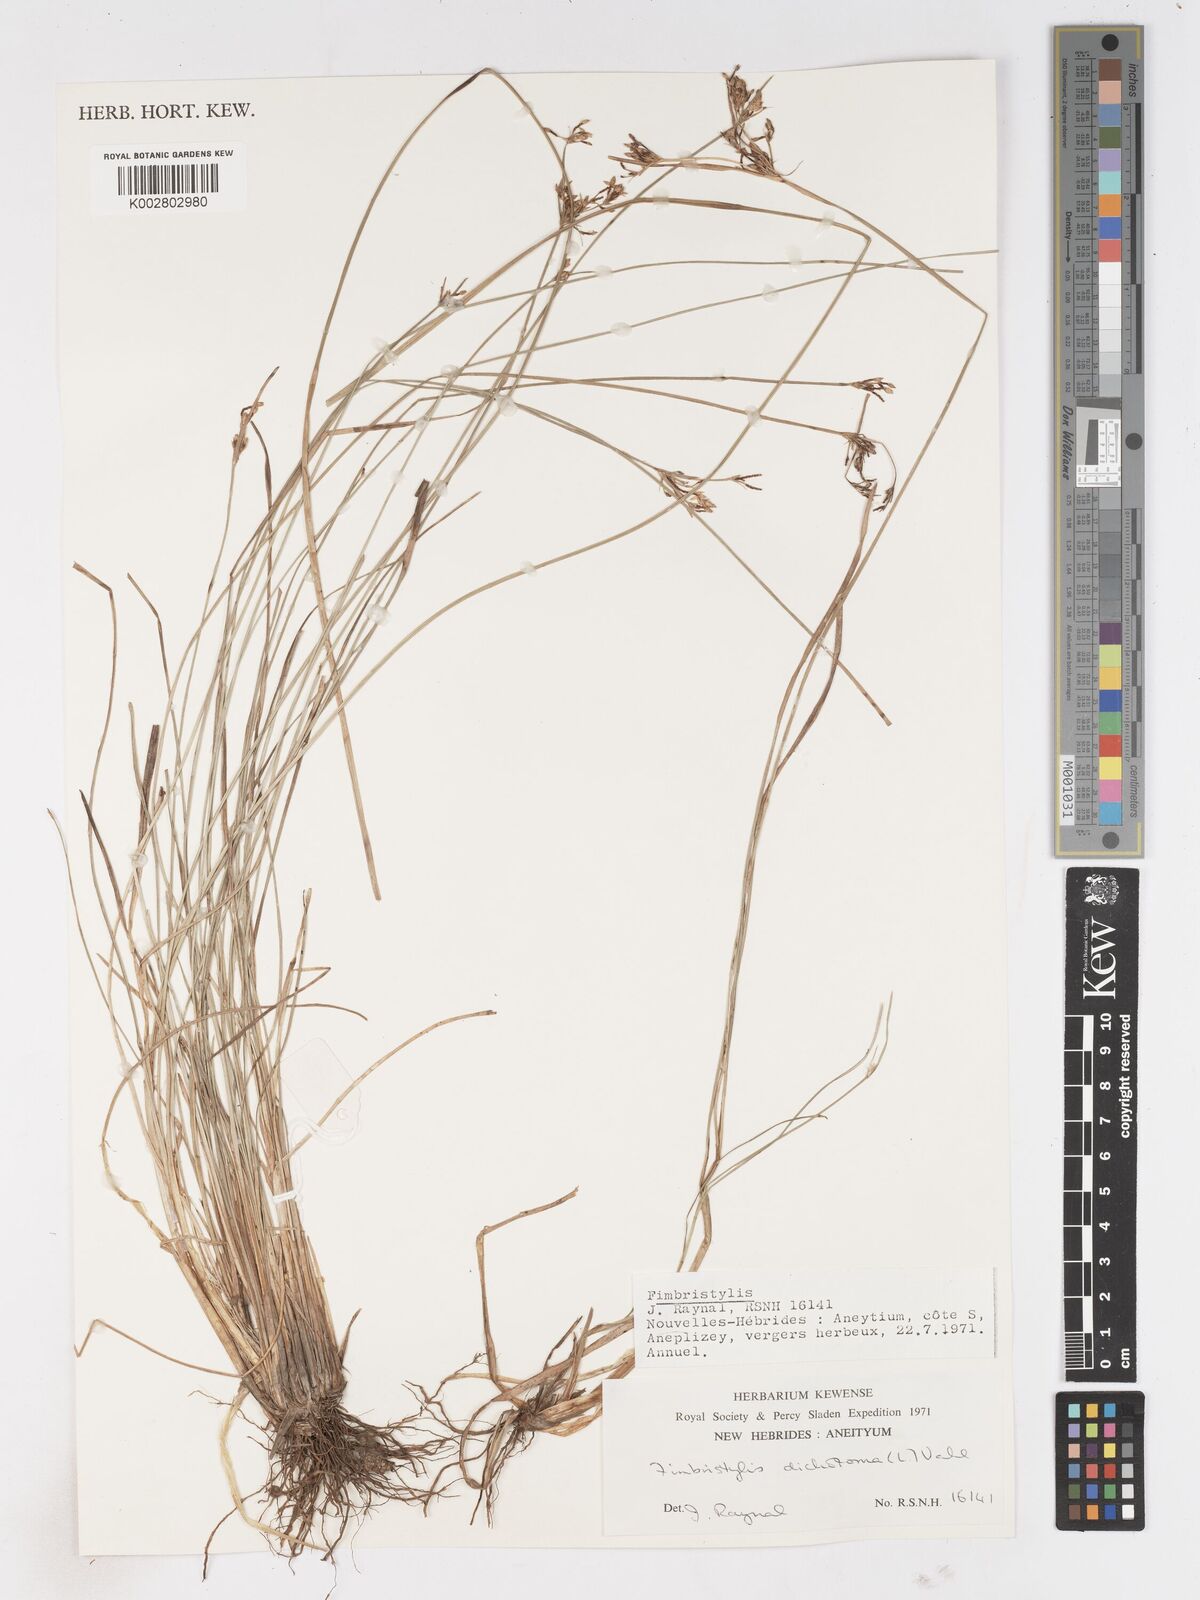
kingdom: Plantae
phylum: Tracheophyta
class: Liliopsida
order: Poales
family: Cyperaceae
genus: Fimbristylis
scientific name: Fimbristylis dichotoma
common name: Forked fimbry
